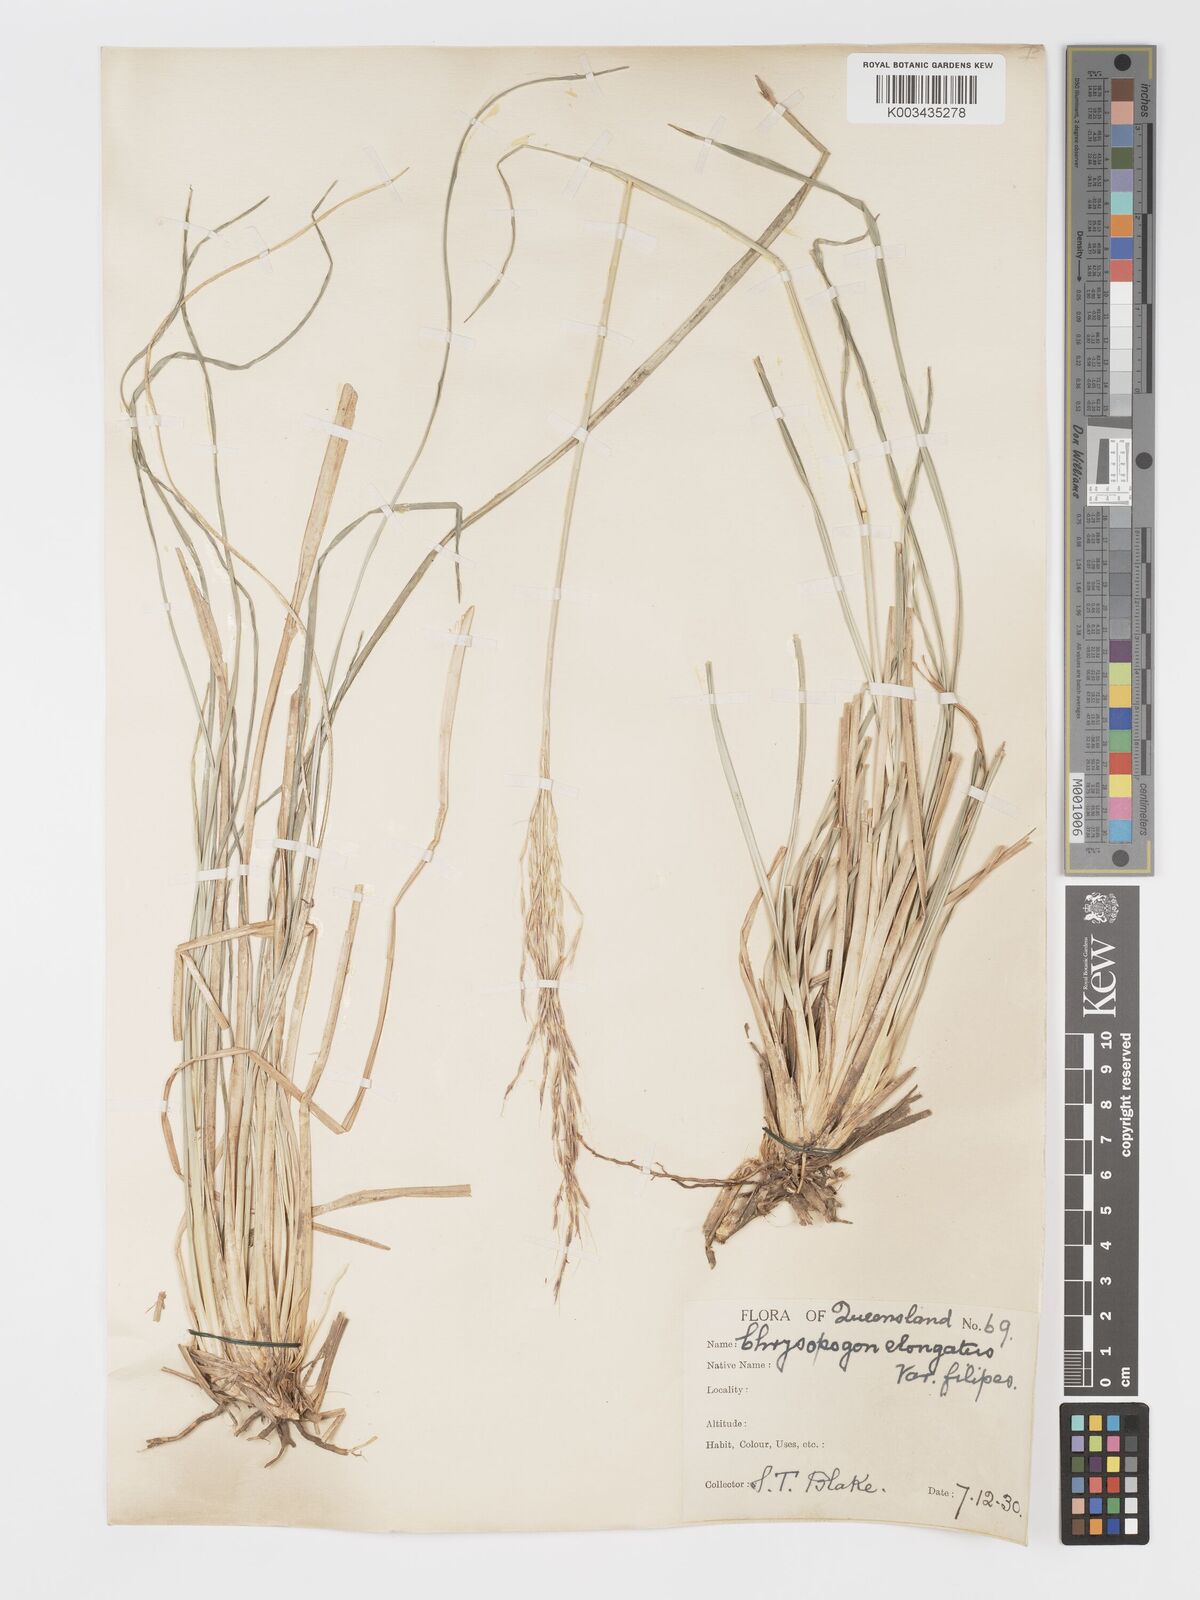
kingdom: Plantae
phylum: Tracheophyta
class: Liliopsida
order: Poales
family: Poaceae
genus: Chrysopogon
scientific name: Chrysopogon filipes
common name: Australian vetiver
